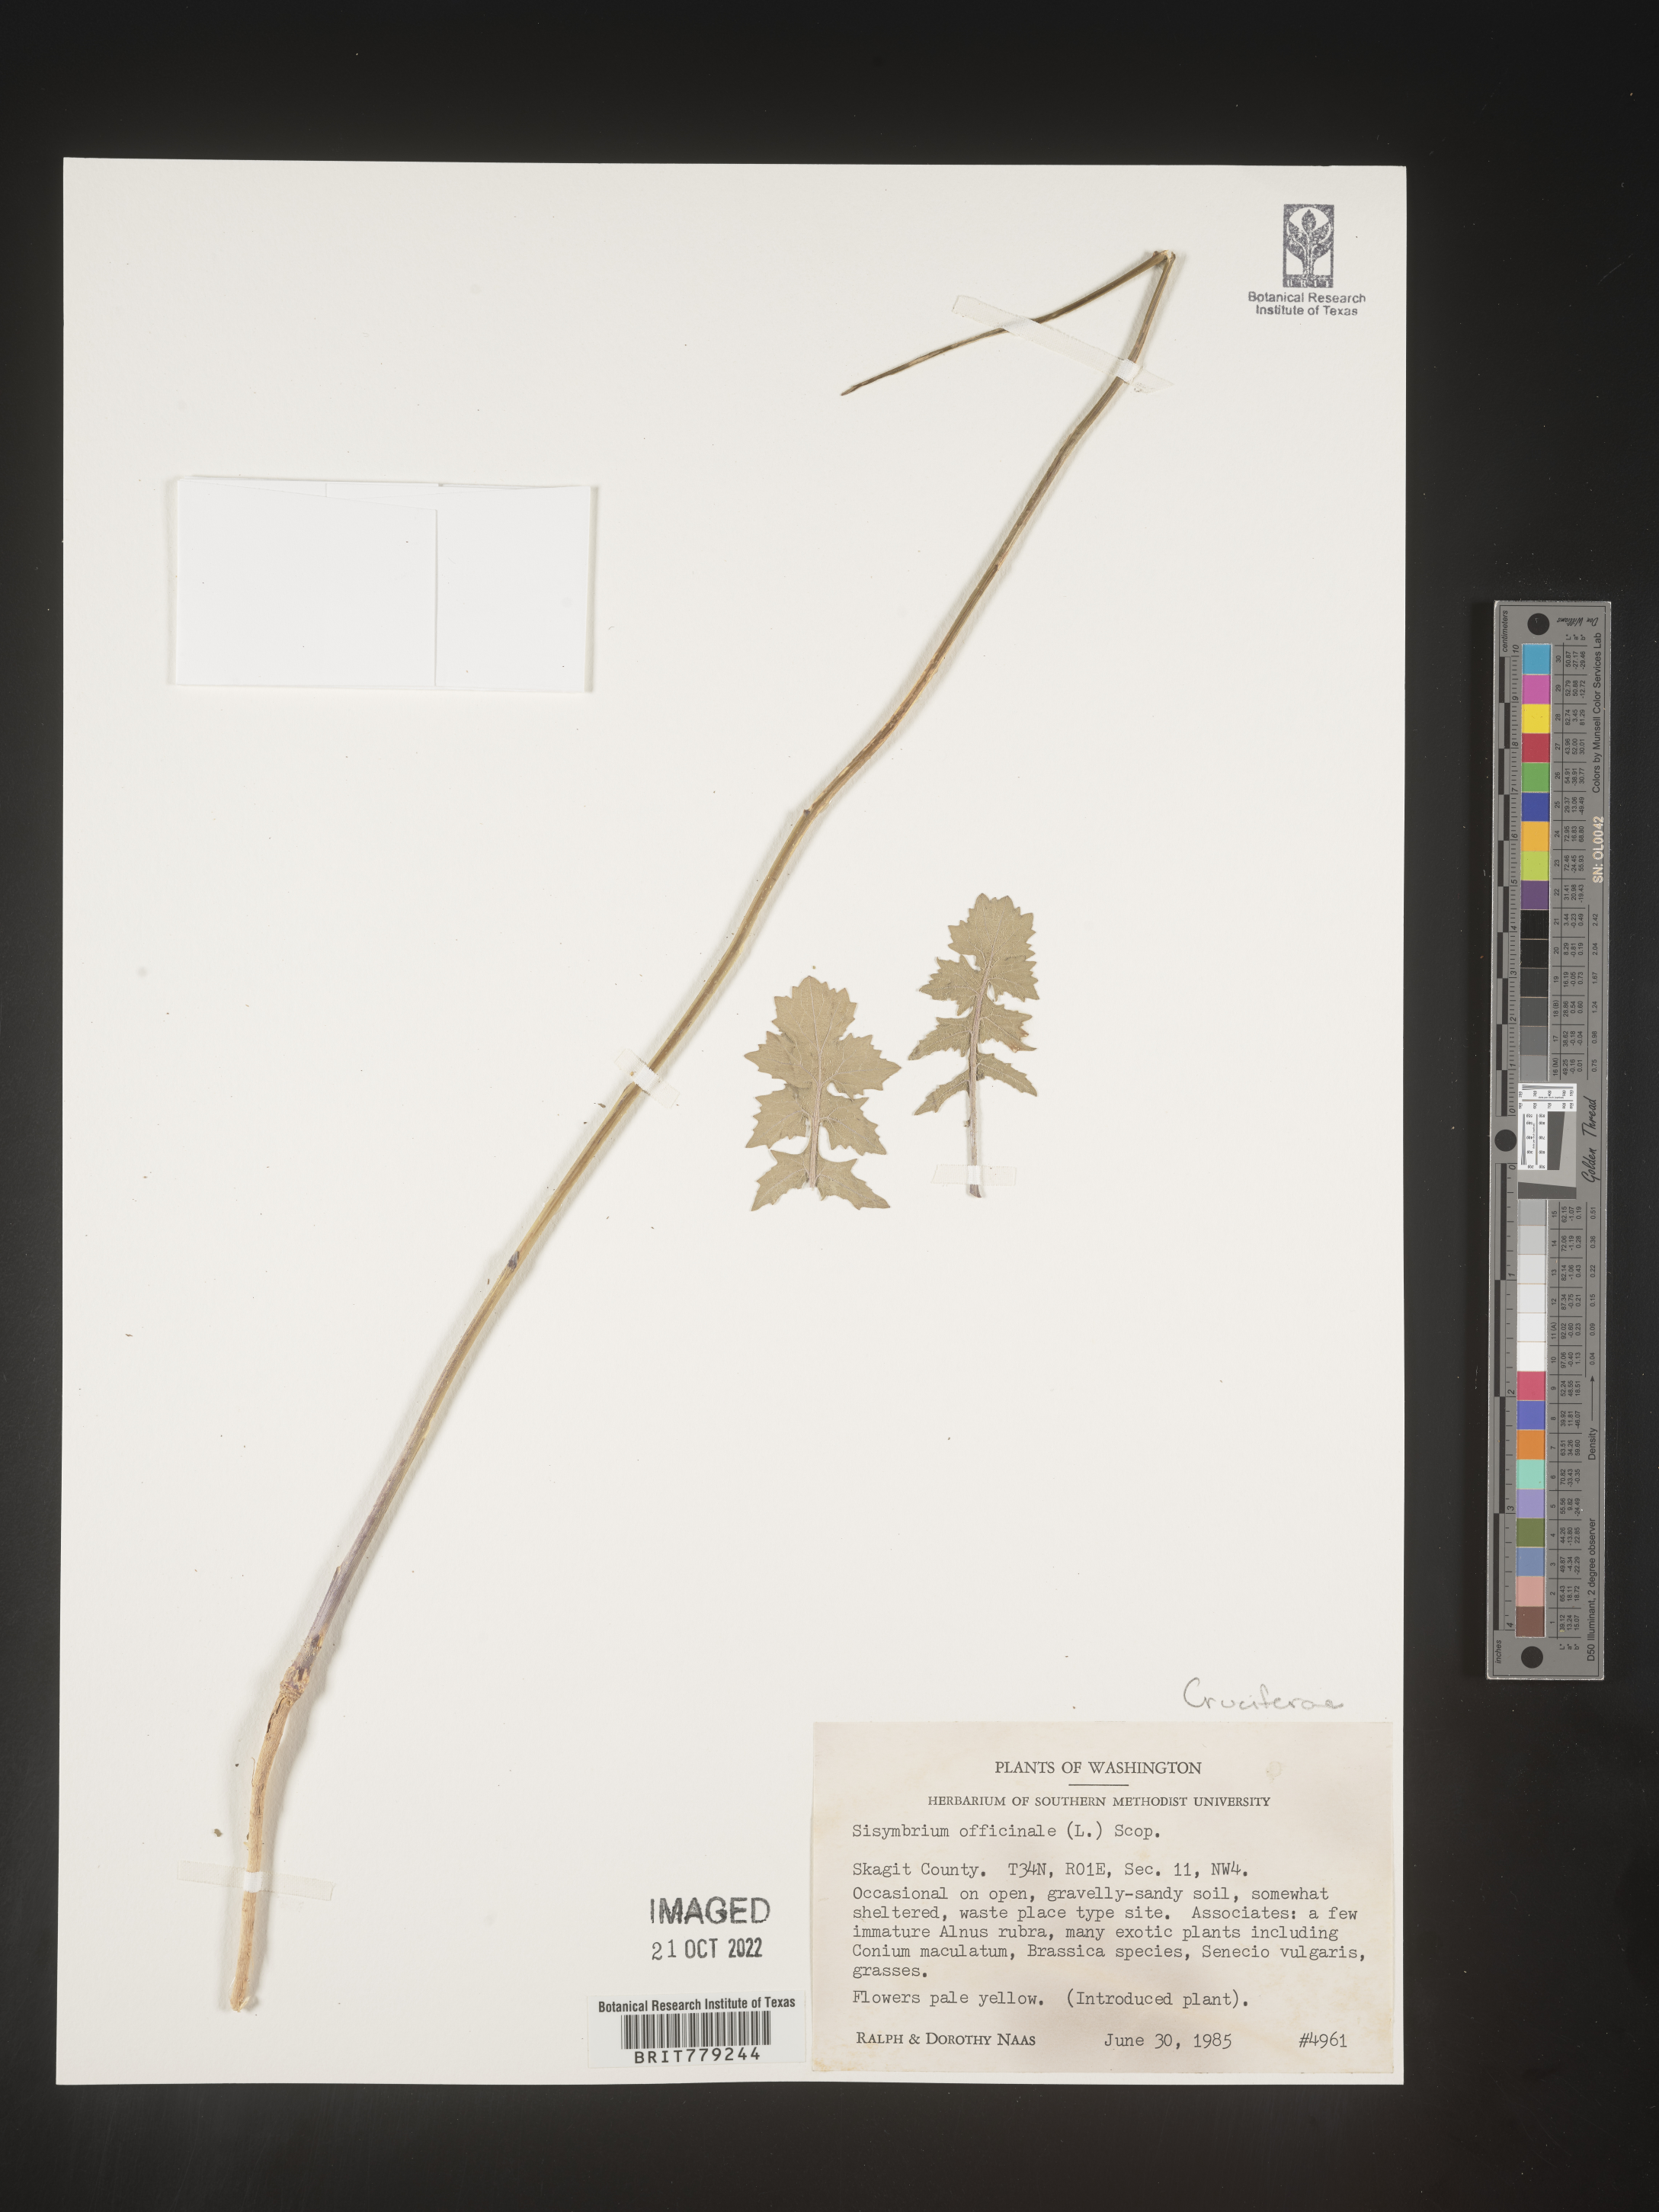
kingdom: Plantae
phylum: Tracheophyta
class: Magnoliopsida
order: Brassicales
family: Brassicaceae
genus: Sisymbrium
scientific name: Sisymbrium officinale
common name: Hedge mustard
